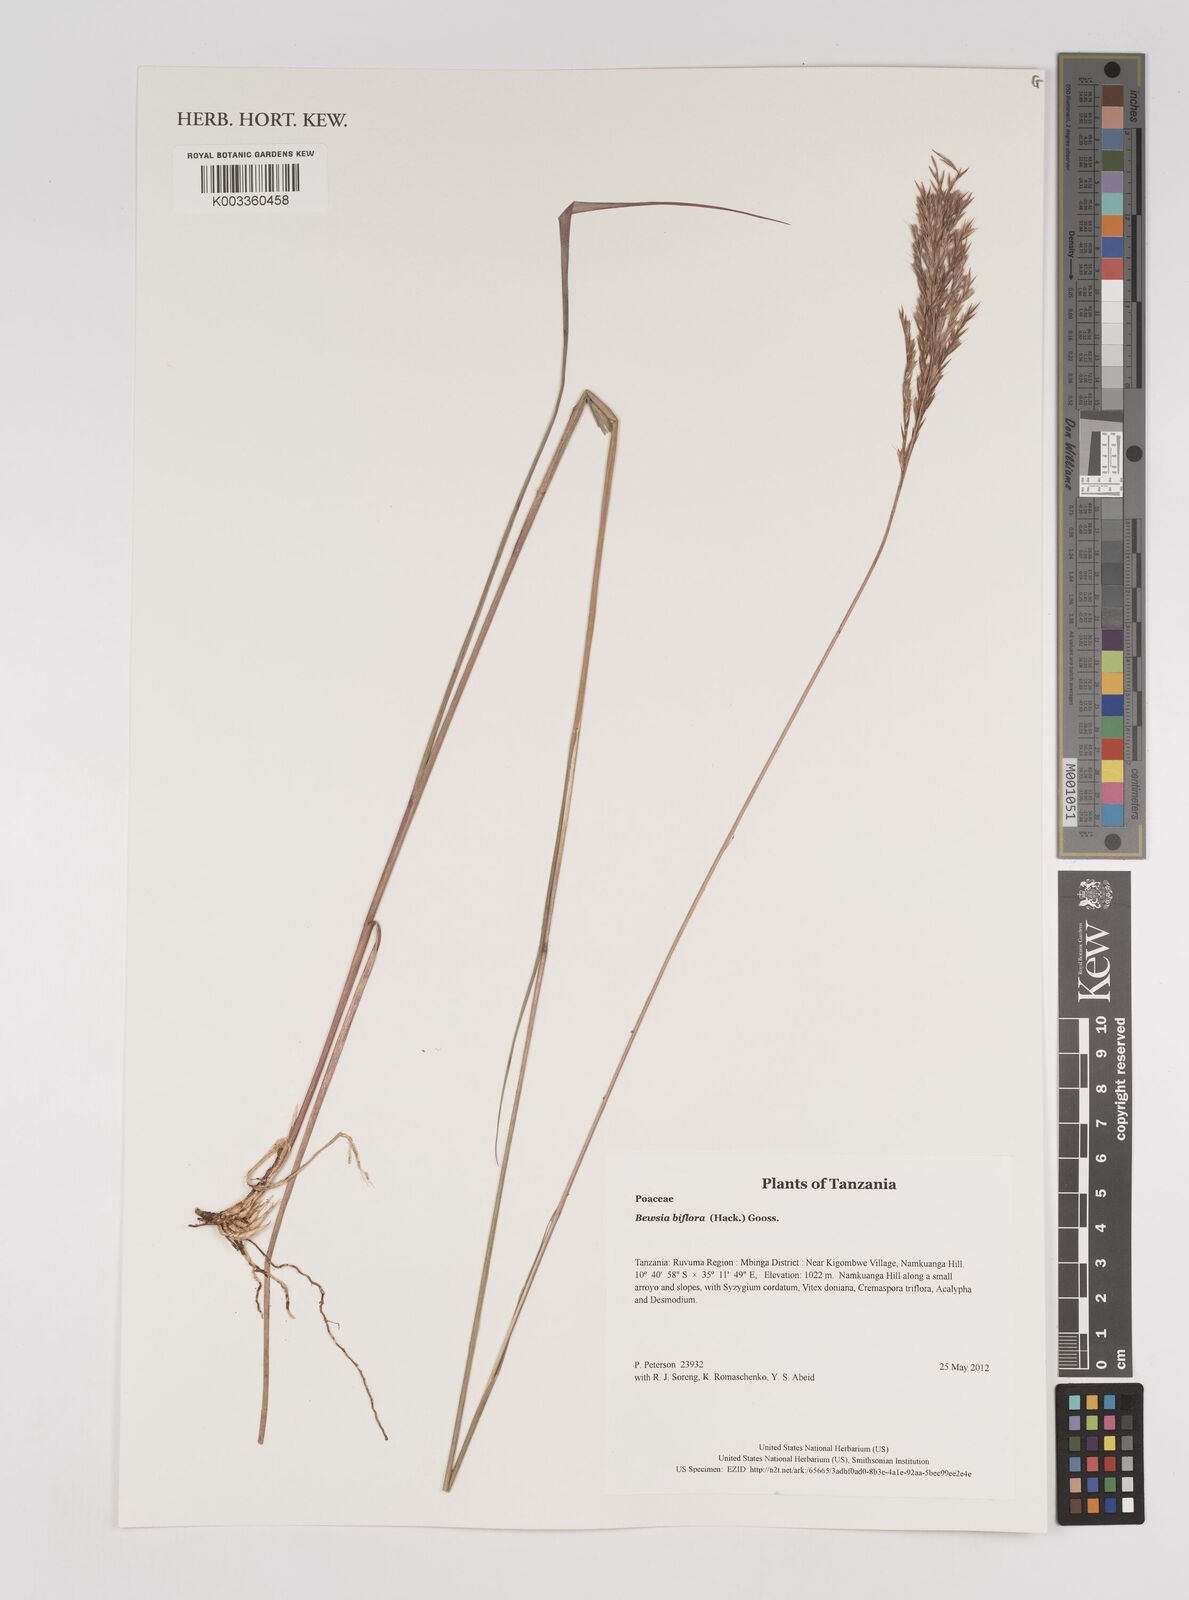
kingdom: Plantae
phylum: Tracheophyta
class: Liliopsida
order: Poales
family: Poaceae
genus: Bewsia
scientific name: Bewsia biflora
